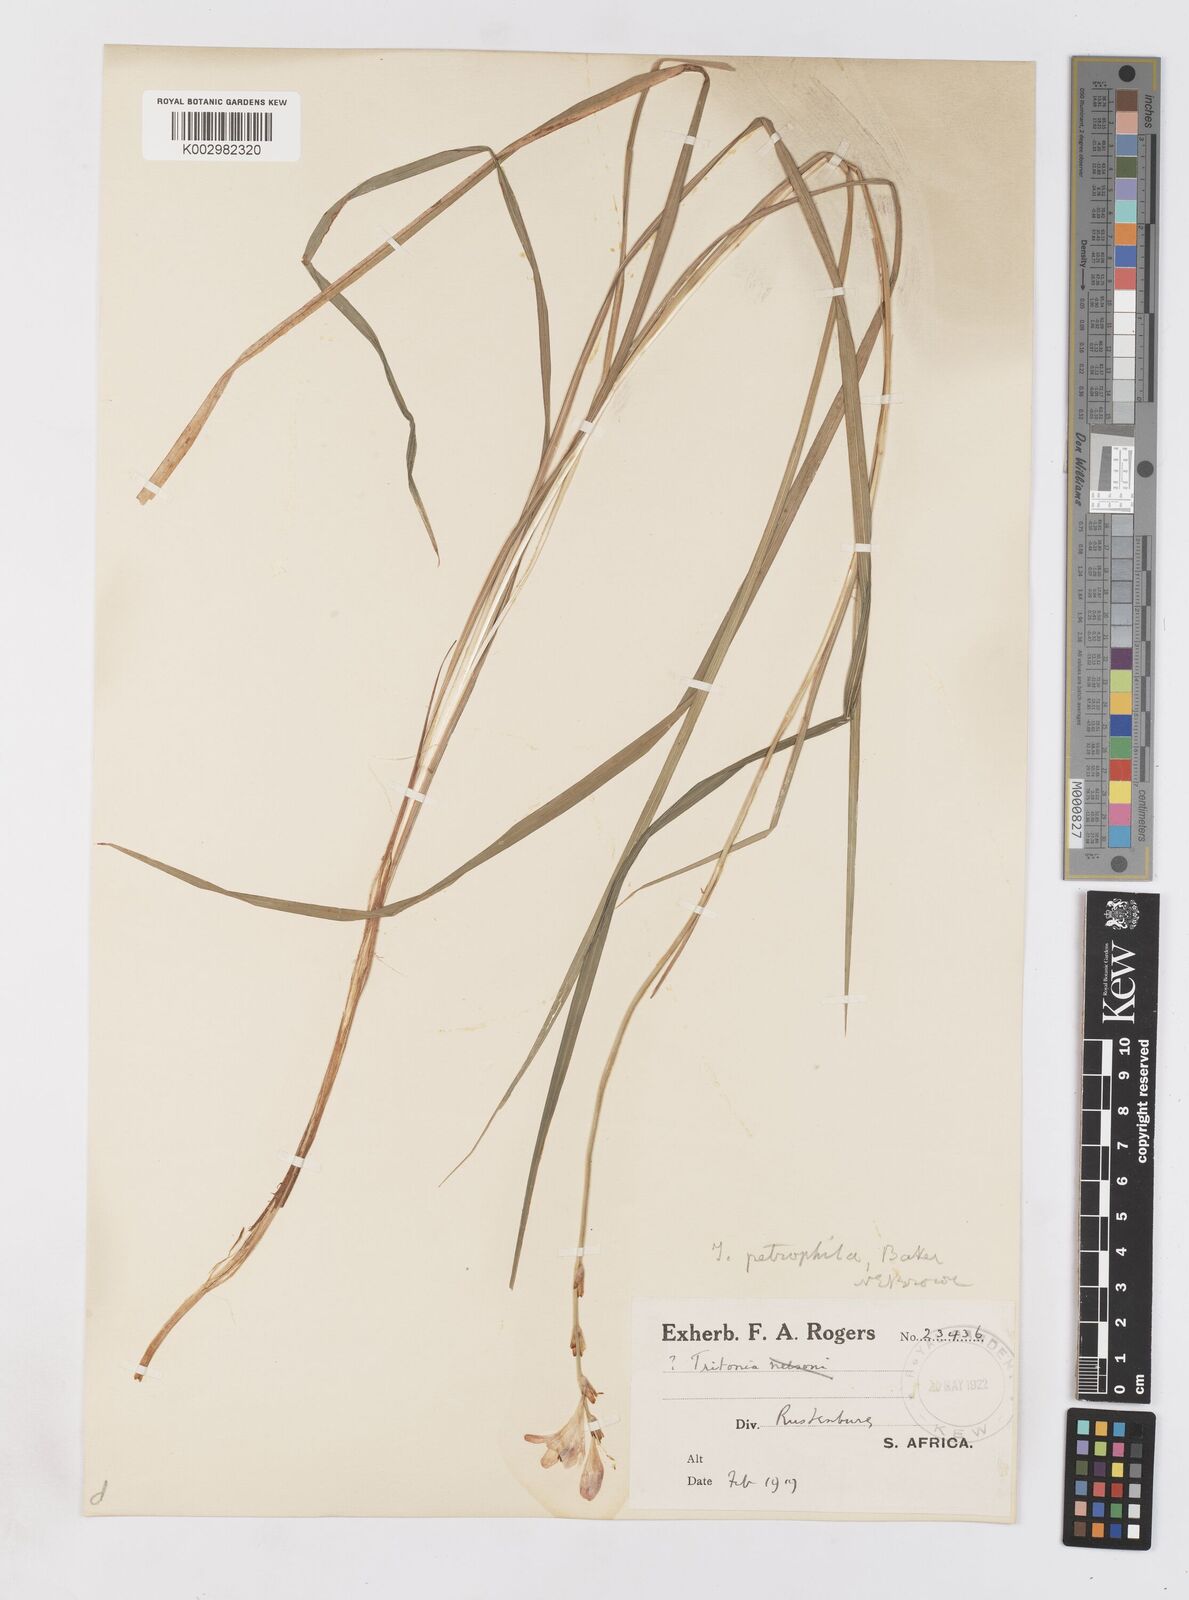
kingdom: Plantae
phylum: Tracheophyta
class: Liliopsida
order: Asparagales
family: Iridaceae
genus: Tritonia
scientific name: Tritonia nelsonii
